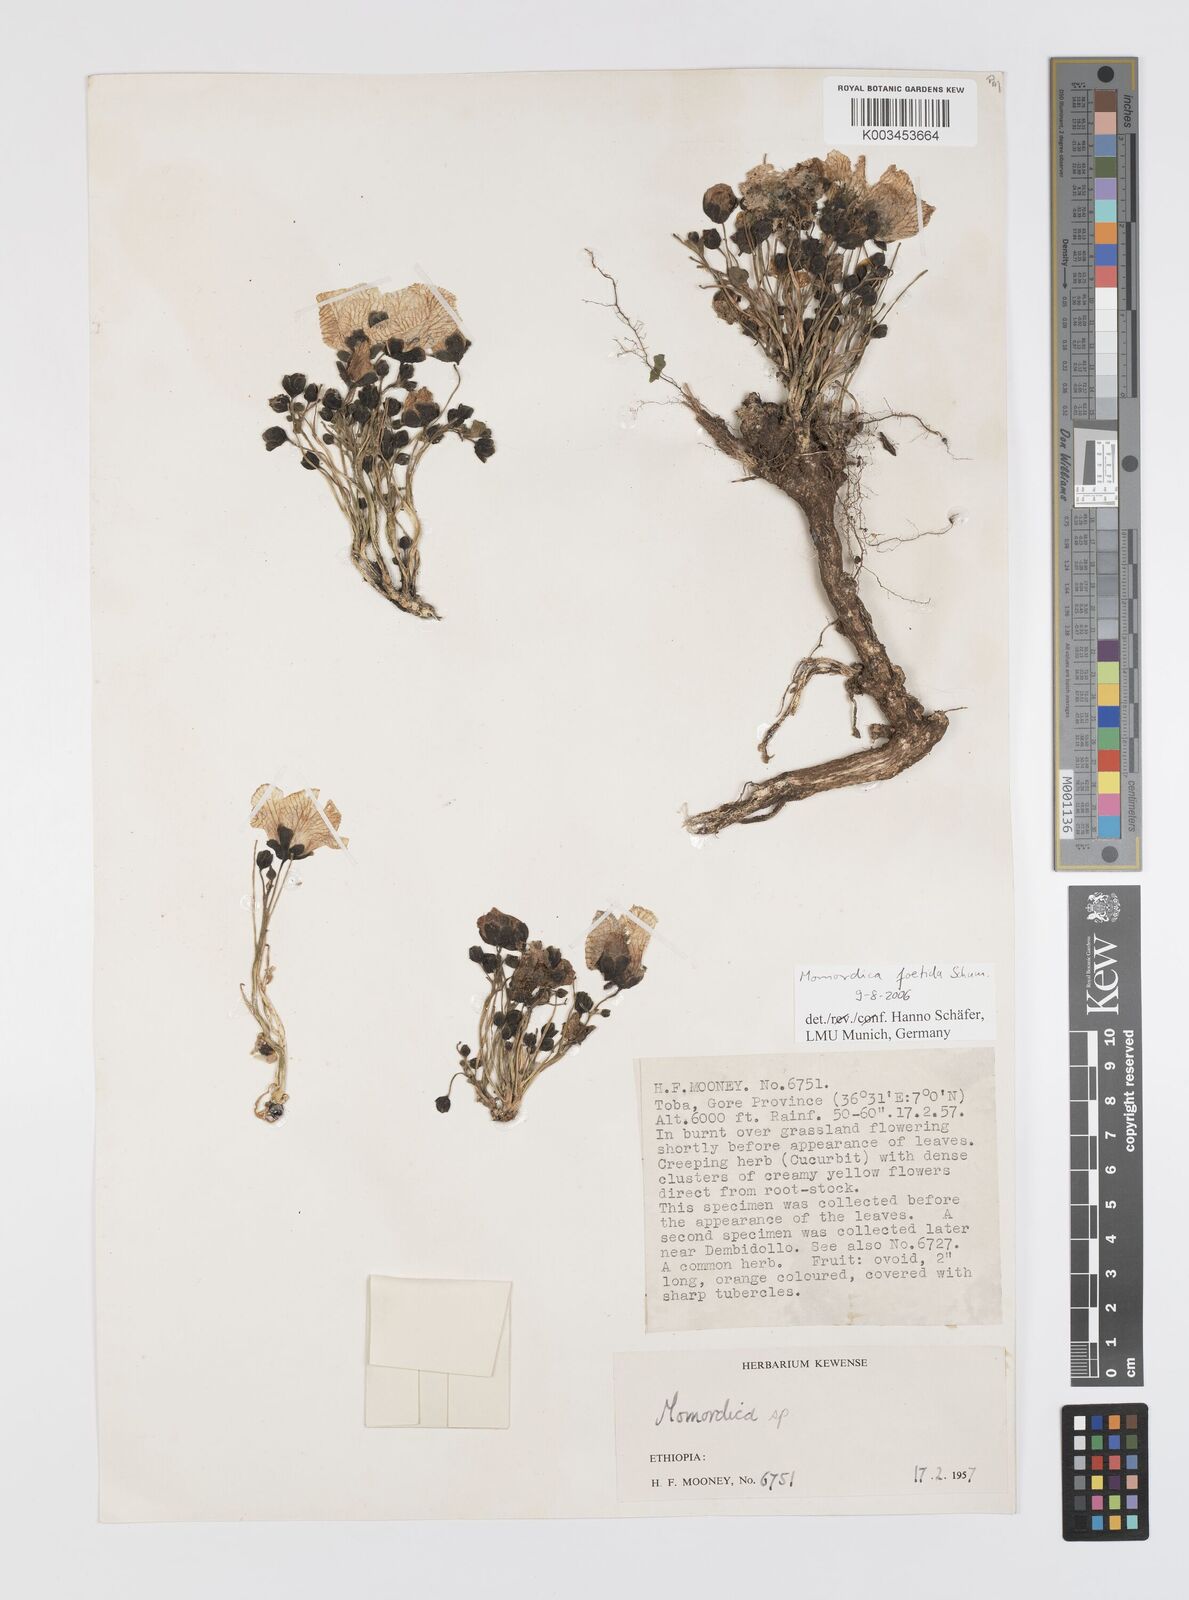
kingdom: Plantae
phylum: Tracheophyta
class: Magnoliopsida
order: Cucurbitales
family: Cucurbitaceae
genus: Momordica
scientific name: Momordica foetida
